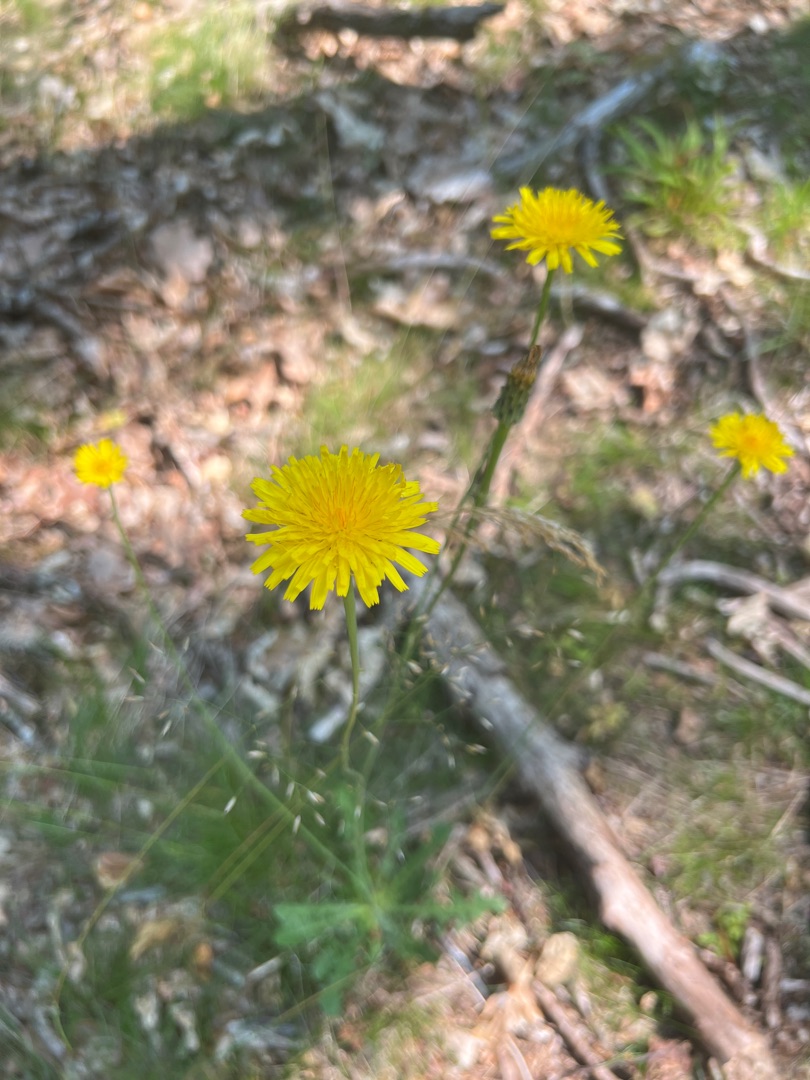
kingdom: Plantae
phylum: Tracheophyta
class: Magnoliopsida
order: Asterales
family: Asteraceae
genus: Hypochaeris
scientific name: Hypochaeris radicata
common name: Almindelig kongepen
